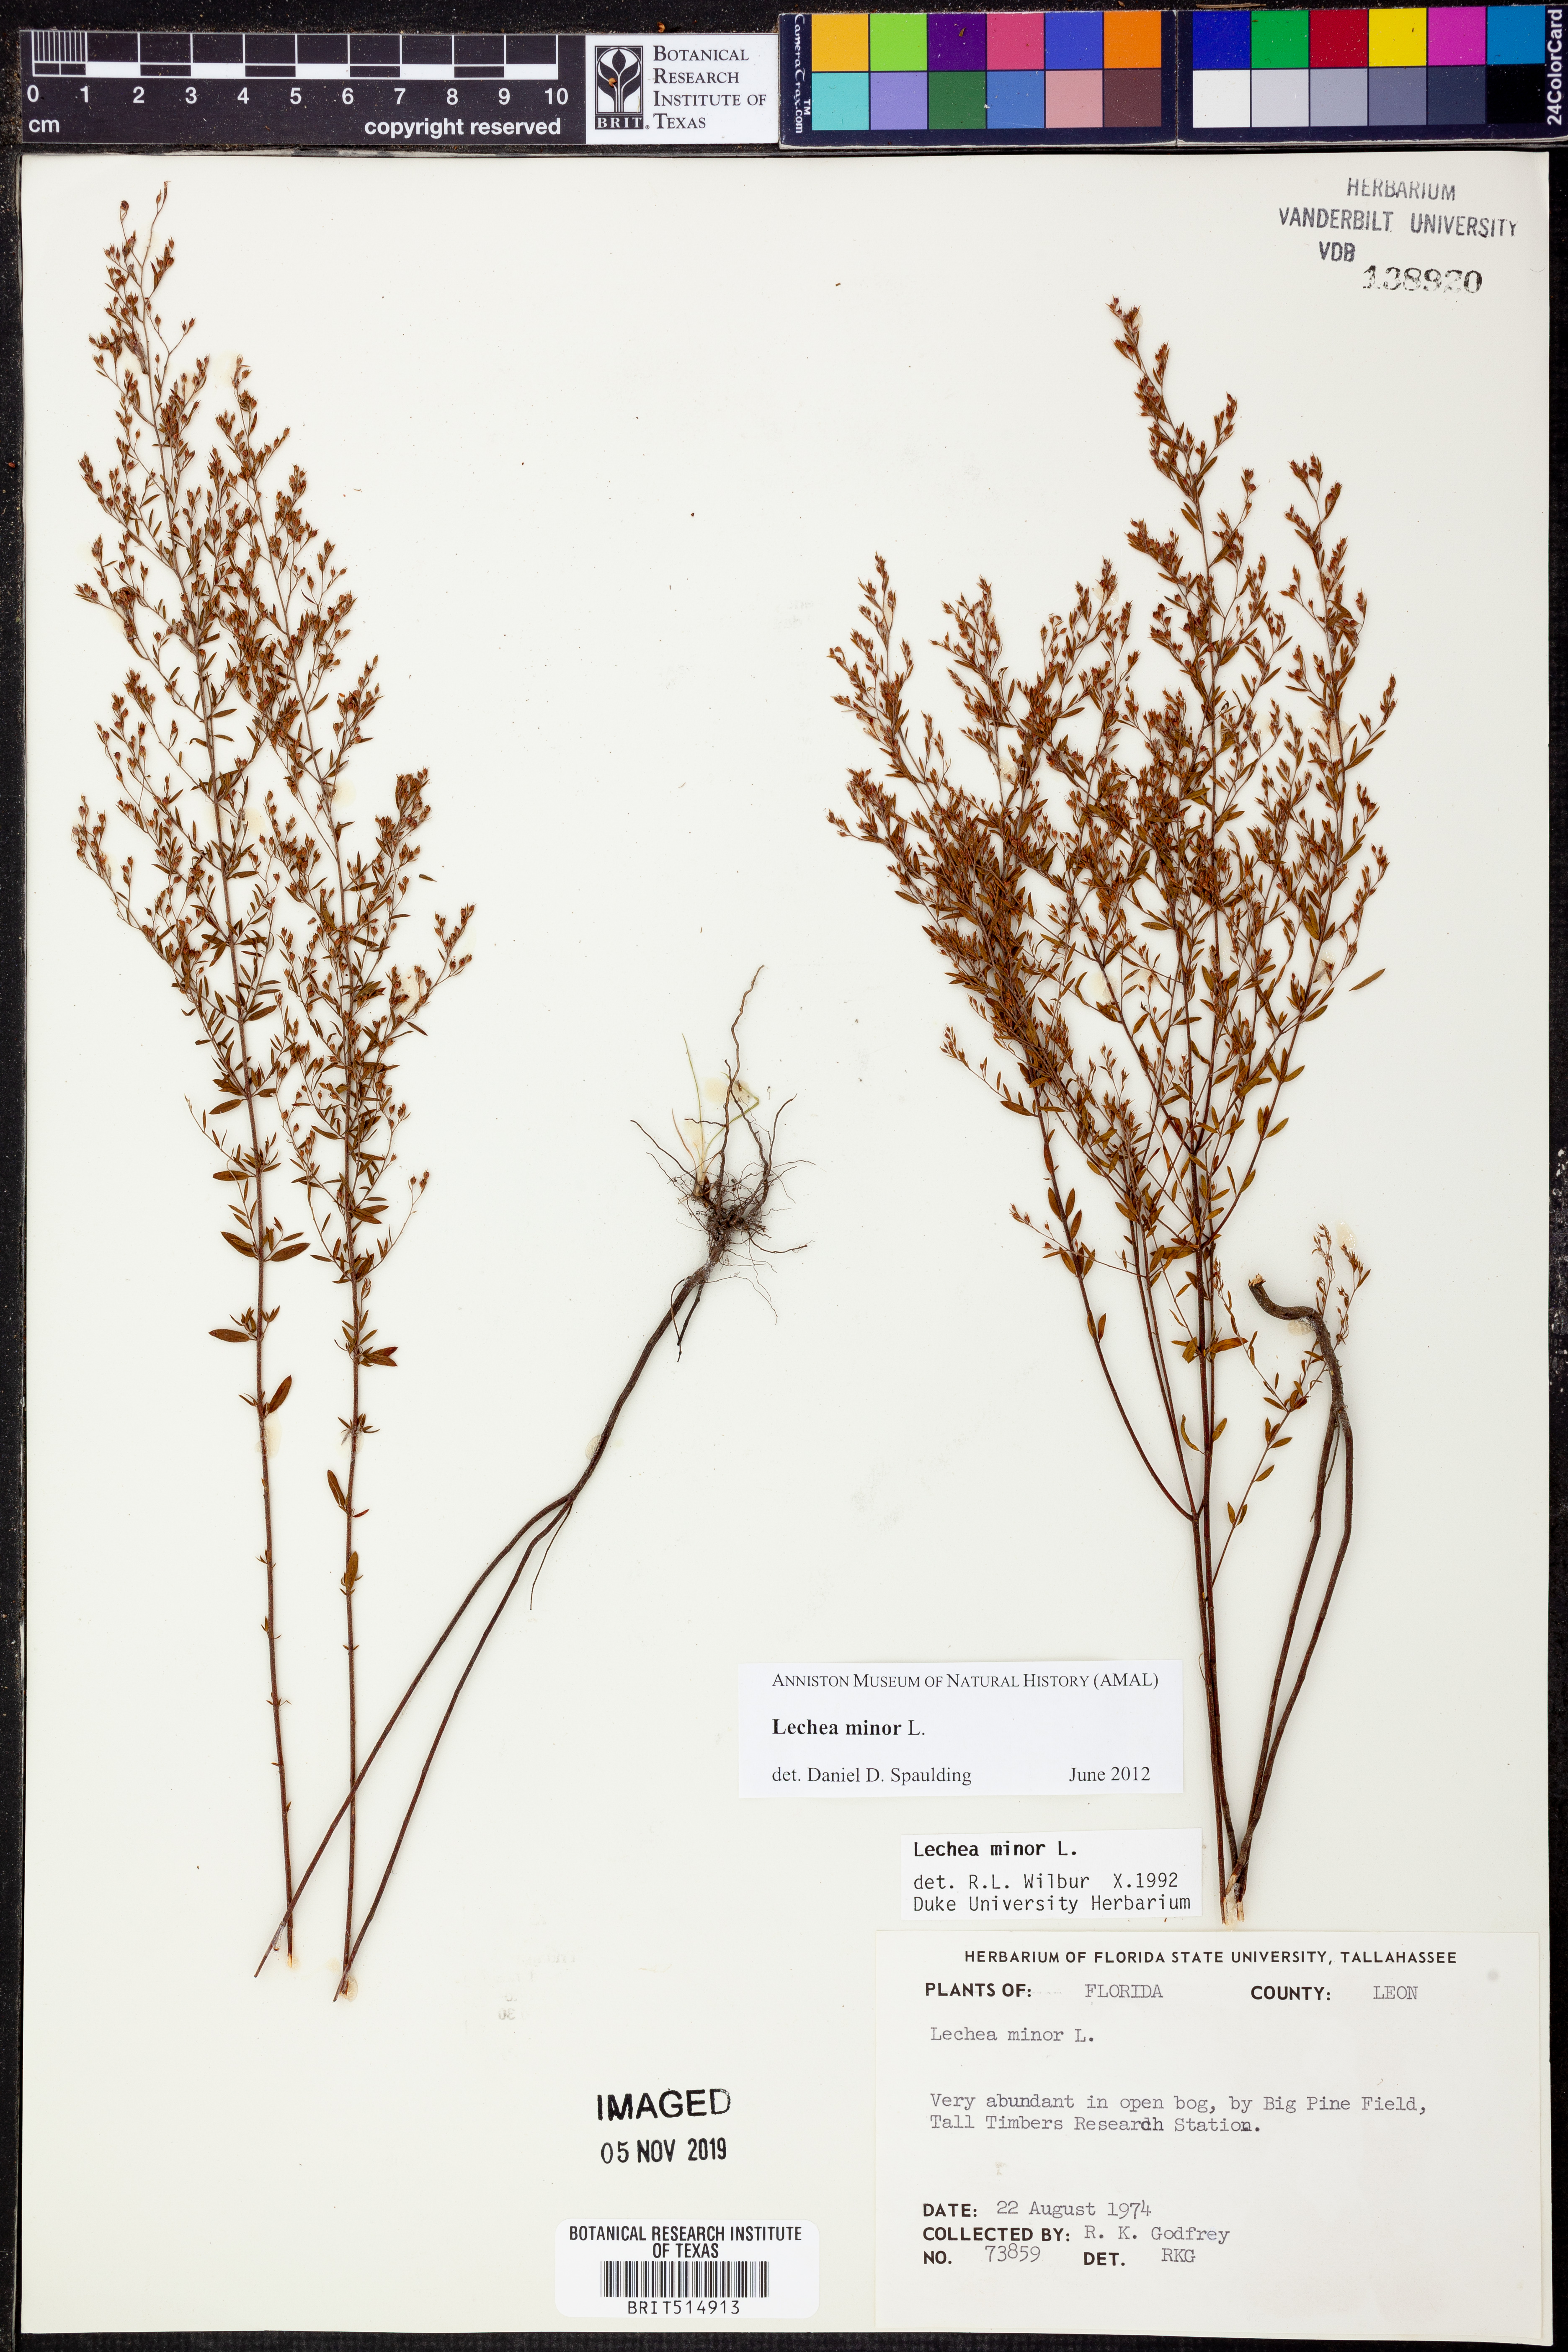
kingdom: Plantae
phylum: Tracheophyta
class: Magnoliopsida
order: Malvales
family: Cistaceae
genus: Lechea
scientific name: Lechea minor
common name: Thyme-leaf pinweed
